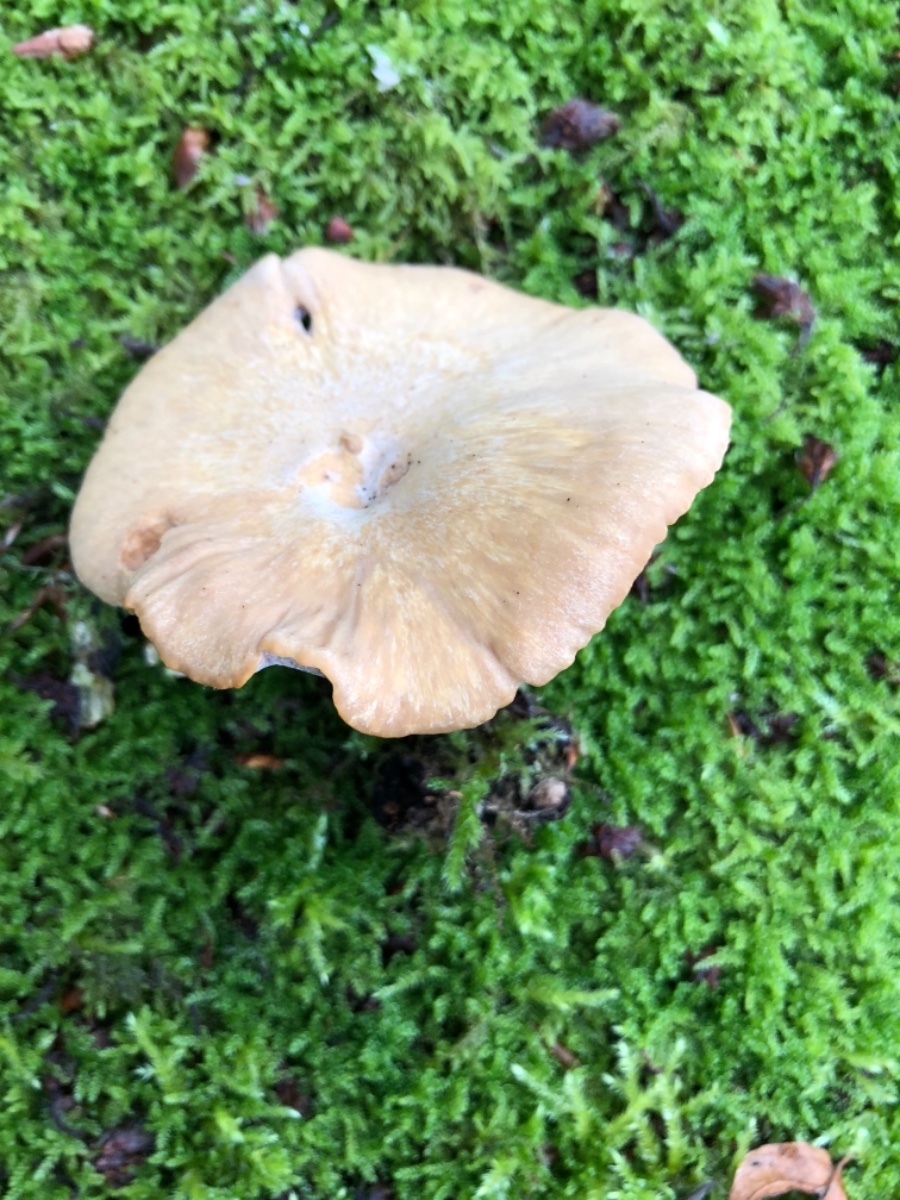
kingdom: Fungi
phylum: Basidiomycota
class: Agaricomycetes
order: Polyporales
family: Polyporaceae
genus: Cerioporus
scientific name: Cerioporus varius
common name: foranderlig stilkporesvamp
